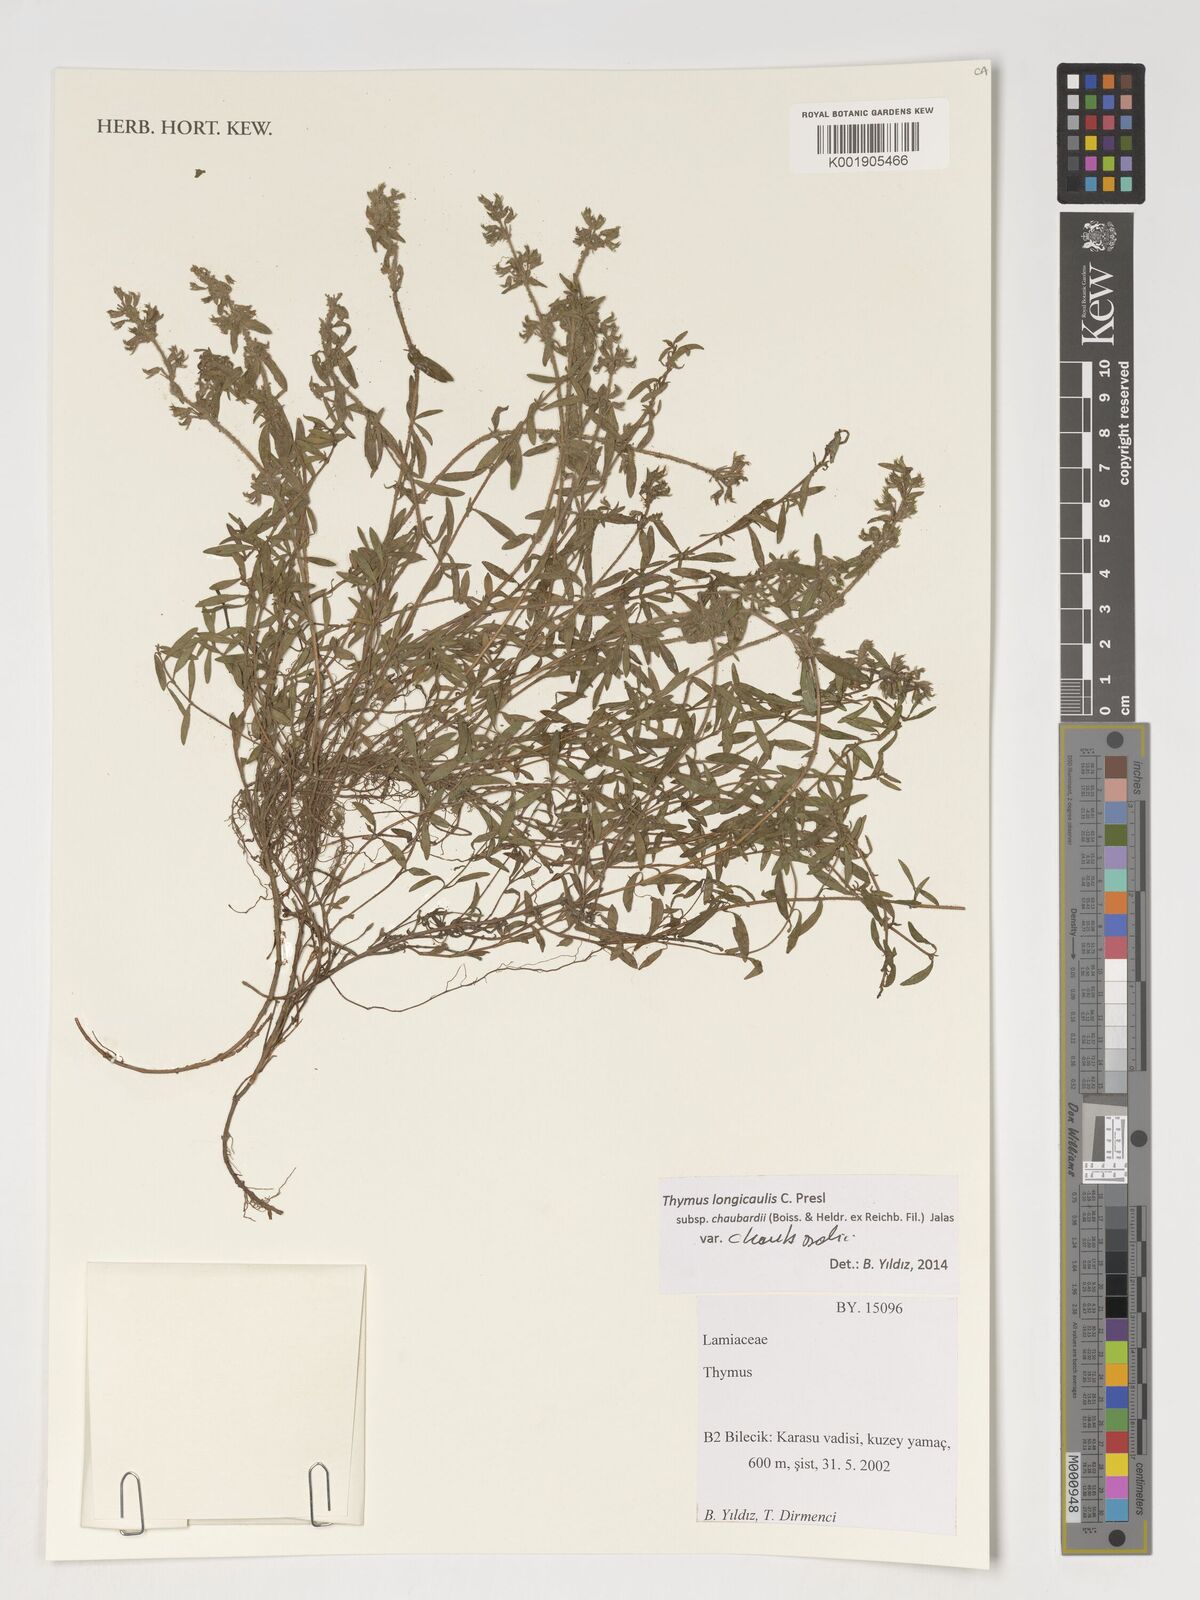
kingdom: Plantae
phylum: Tracheophyta
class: Magnoliopsida
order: Lamiales
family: Lamiaceae
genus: Thymus
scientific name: Thymus longicaulis
